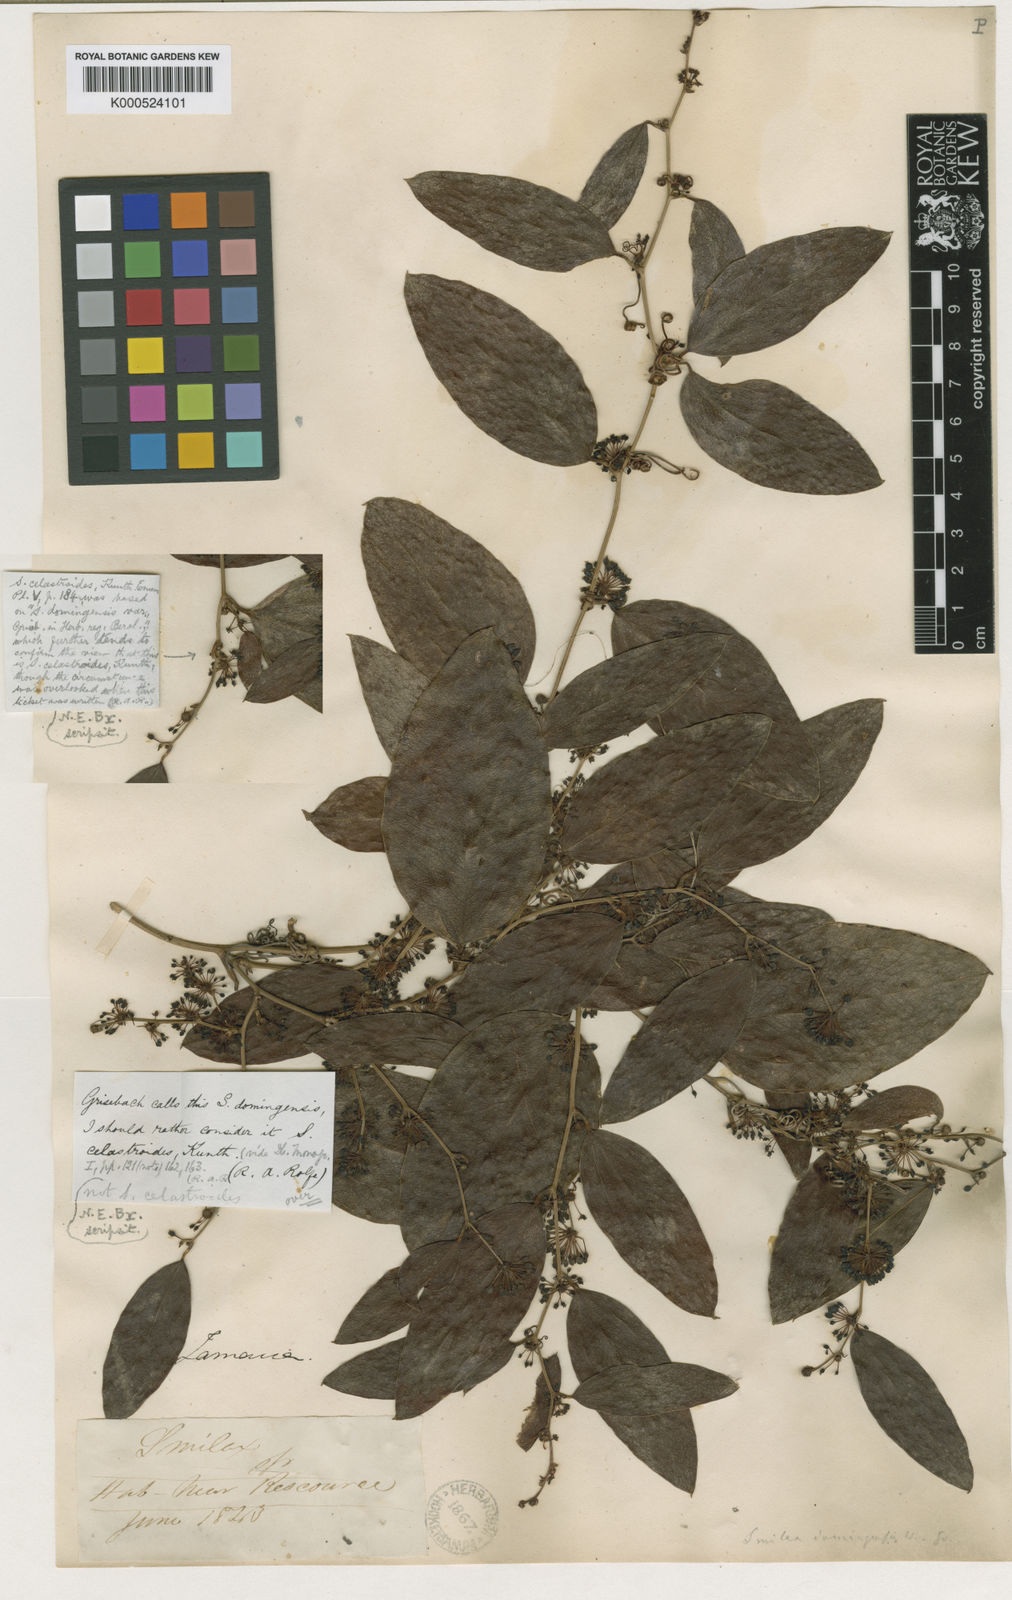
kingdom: Plantae
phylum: Tracheophyta
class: Liliopsida
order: Liliales
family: Smilacaceae
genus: Smilax
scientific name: Smilax domingensis
